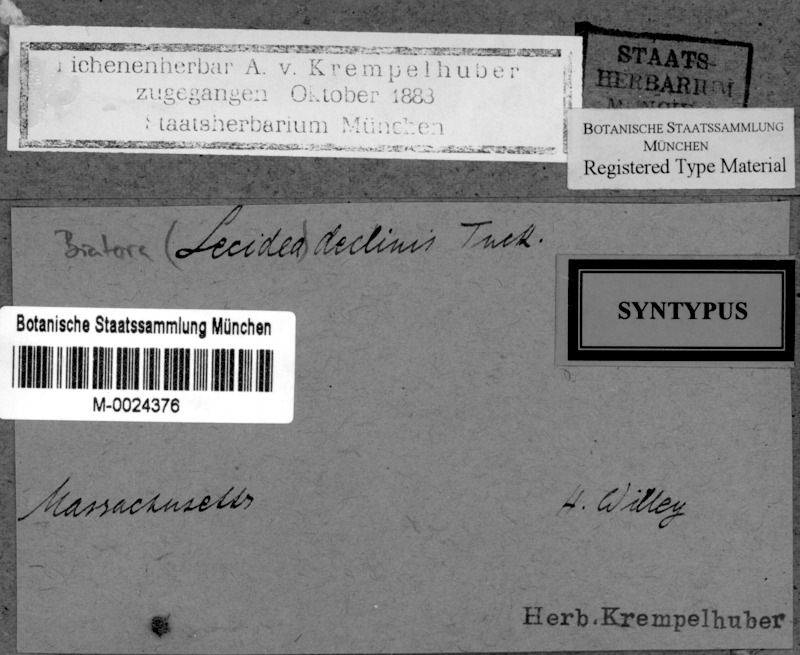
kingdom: Fungi
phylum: Ascomycota
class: Lecanoromycetes
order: Lecanorales
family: Ramalinaceae
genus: Bilimbia
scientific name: Bilimbia declinis
